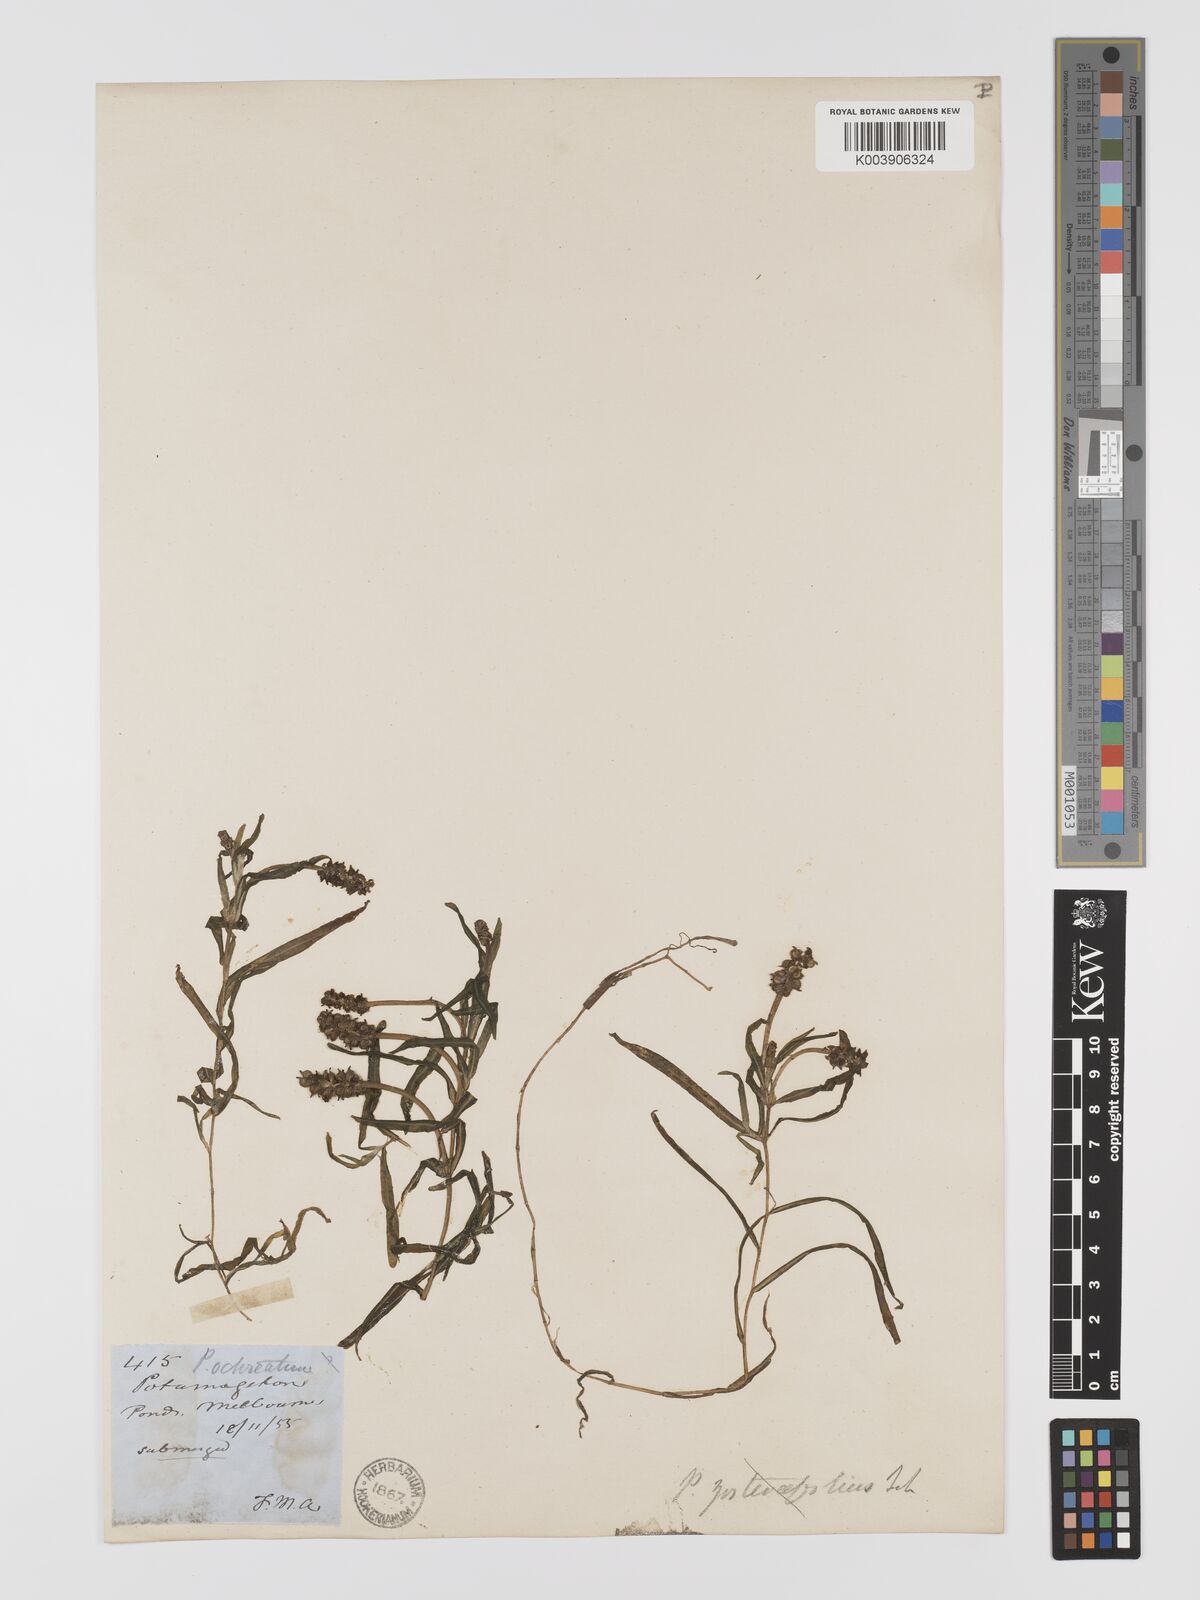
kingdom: Plantae
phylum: Tracheophyta
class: Liliopsida
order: Alismatales
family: Potamogetonaceae
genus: Potamogeton
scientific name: Potamogeton ochreatus
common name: Blunt pondweed
